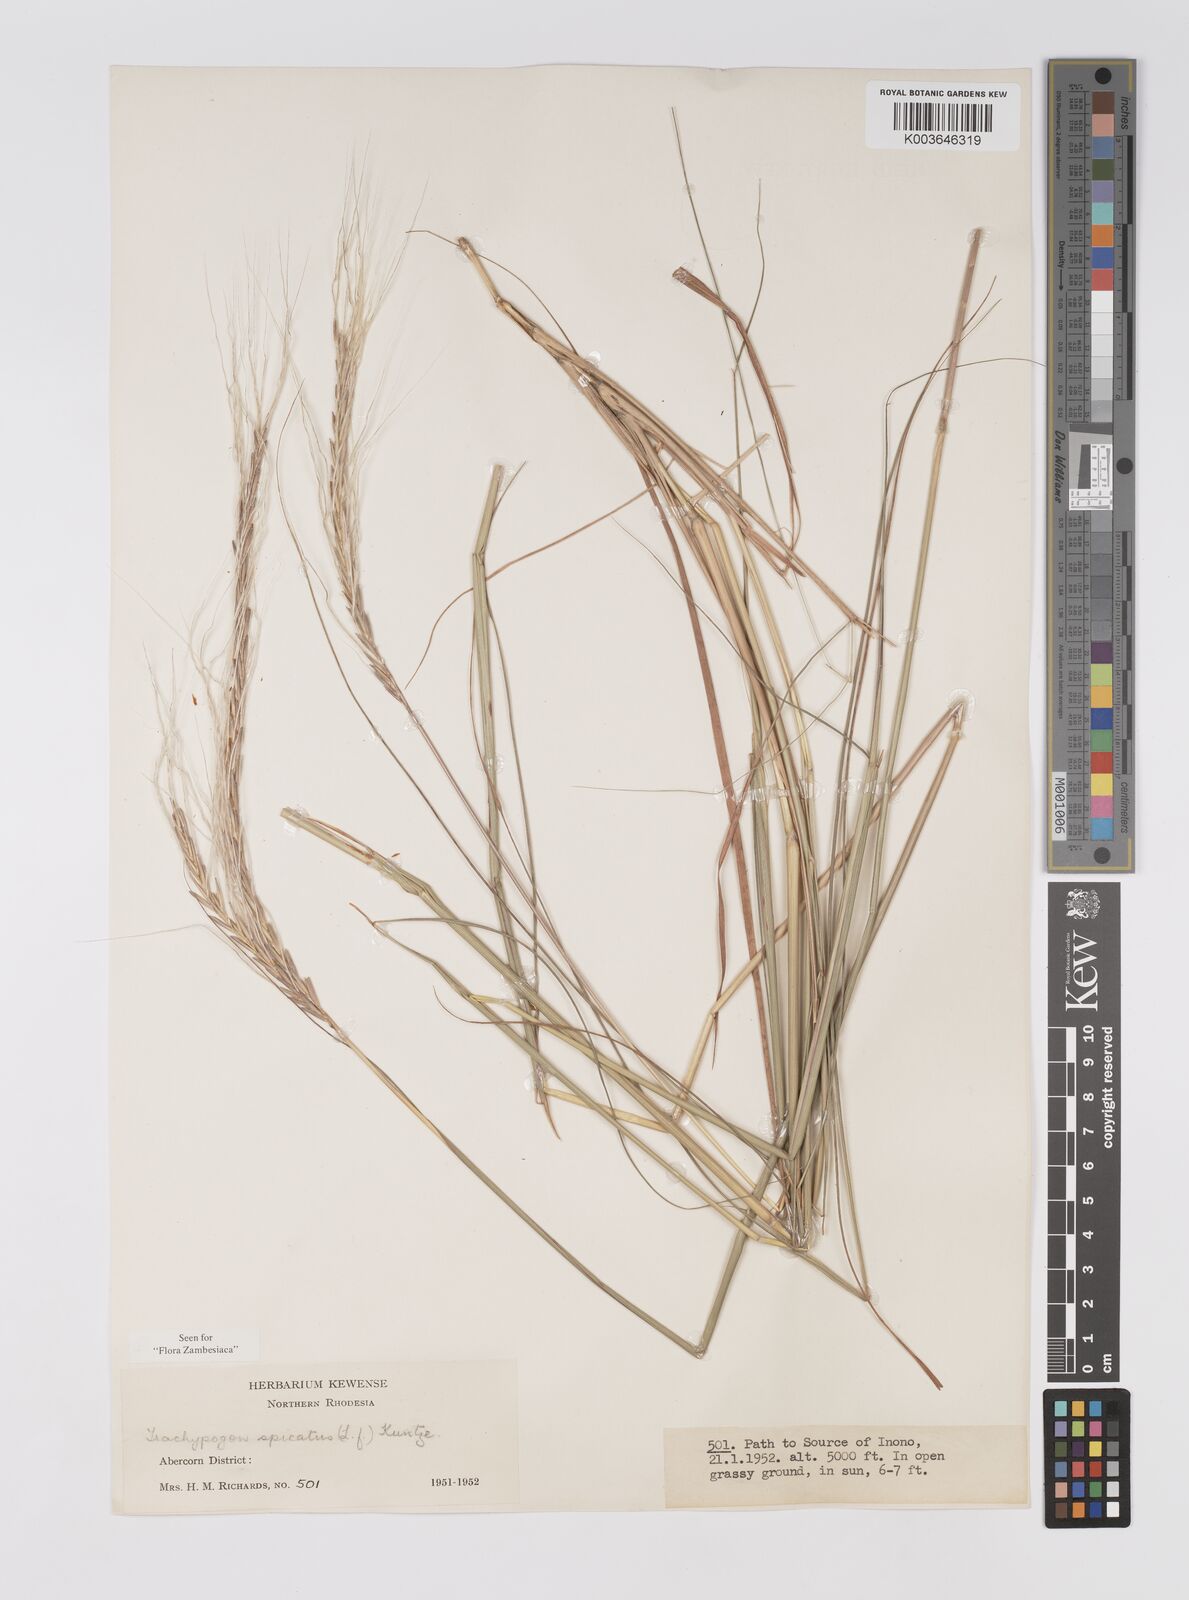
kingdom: Plantae
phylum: Tracheophyta
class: Liliopsida
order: Poales
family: Poaceae
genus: Trachypogon
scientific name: Trachypogon spicatus
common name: Crinkle-awn
